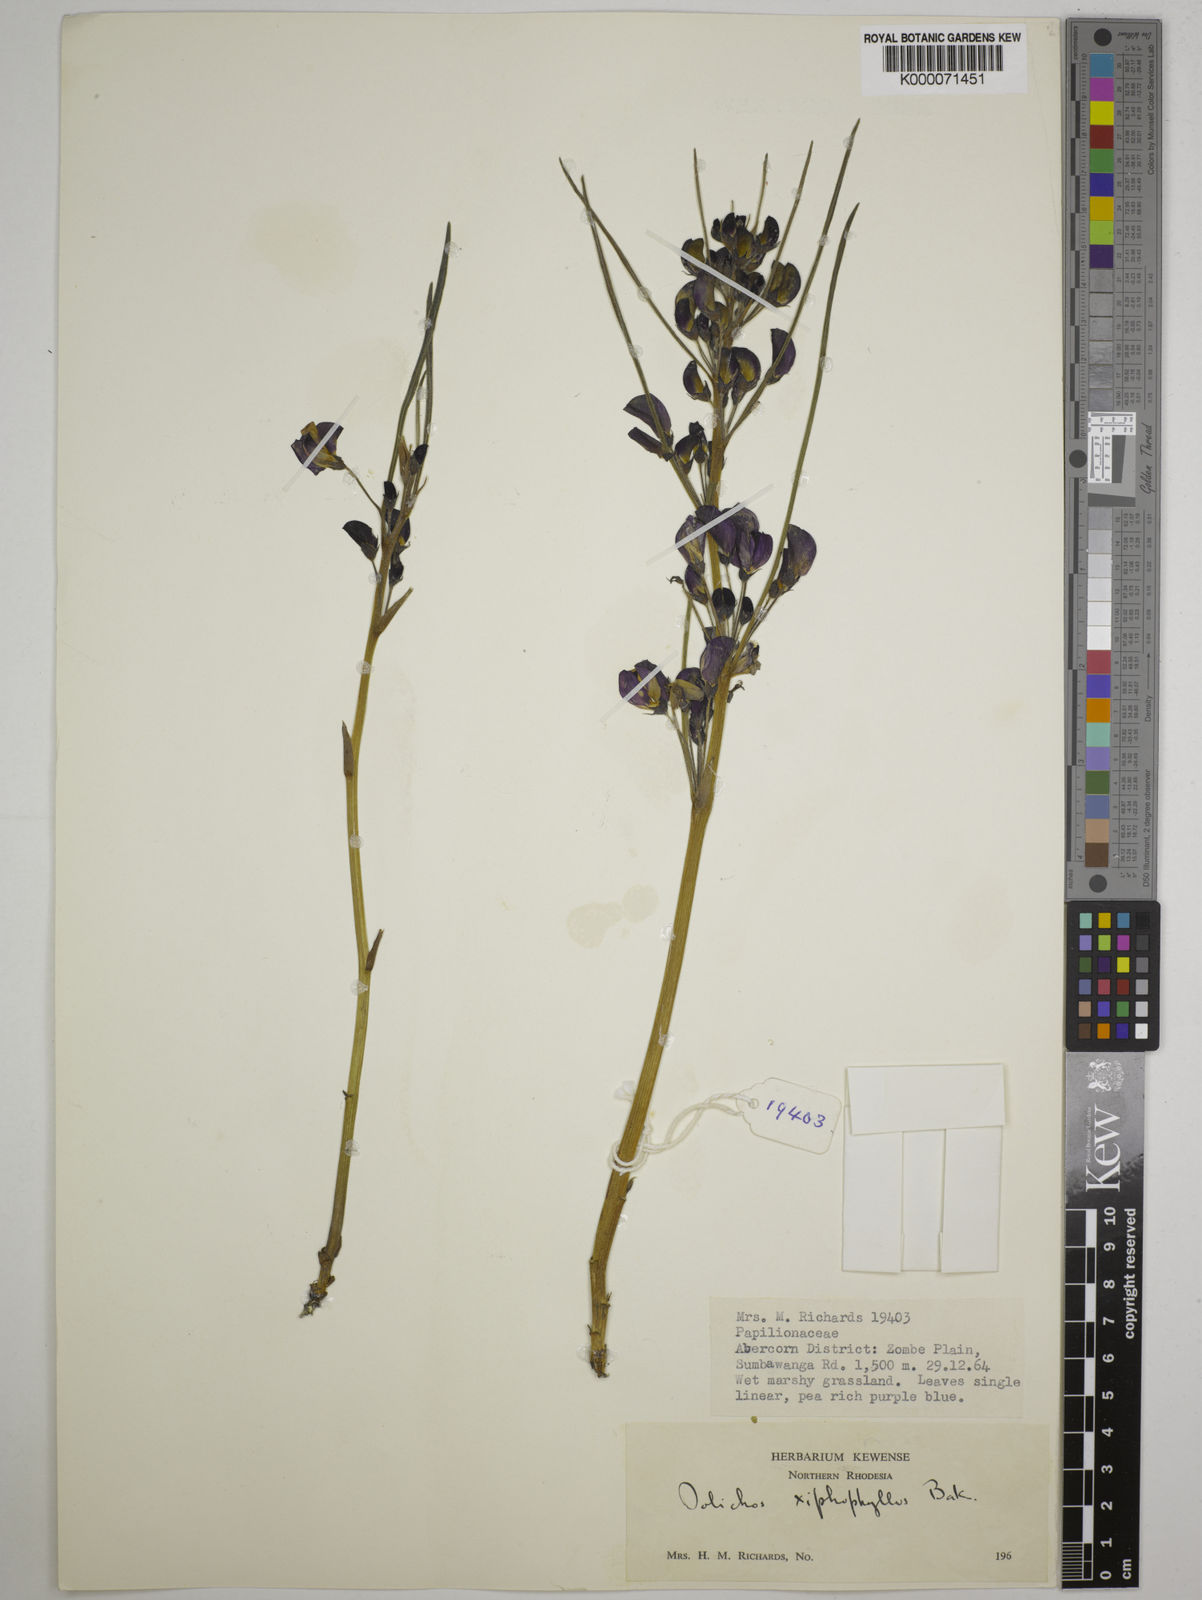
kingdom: Plantae
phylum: Tracheophyta
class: Magnoliopsida
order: Fabales
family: Fabaceae
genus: Dolichos
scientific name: Dolichos xiphophyllus
